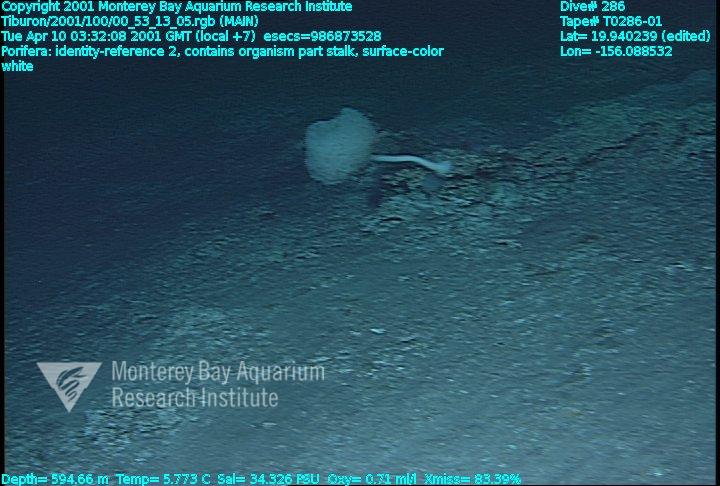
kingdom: Animalia
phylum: Porifera
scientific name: Porifera
